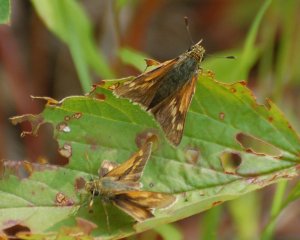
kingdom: Animalia
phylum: Arthropoda
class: Insecta
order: Lepidoptera
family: Hesperiidae
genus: Polites
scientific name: Polites coras
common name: Peck's Skipper
